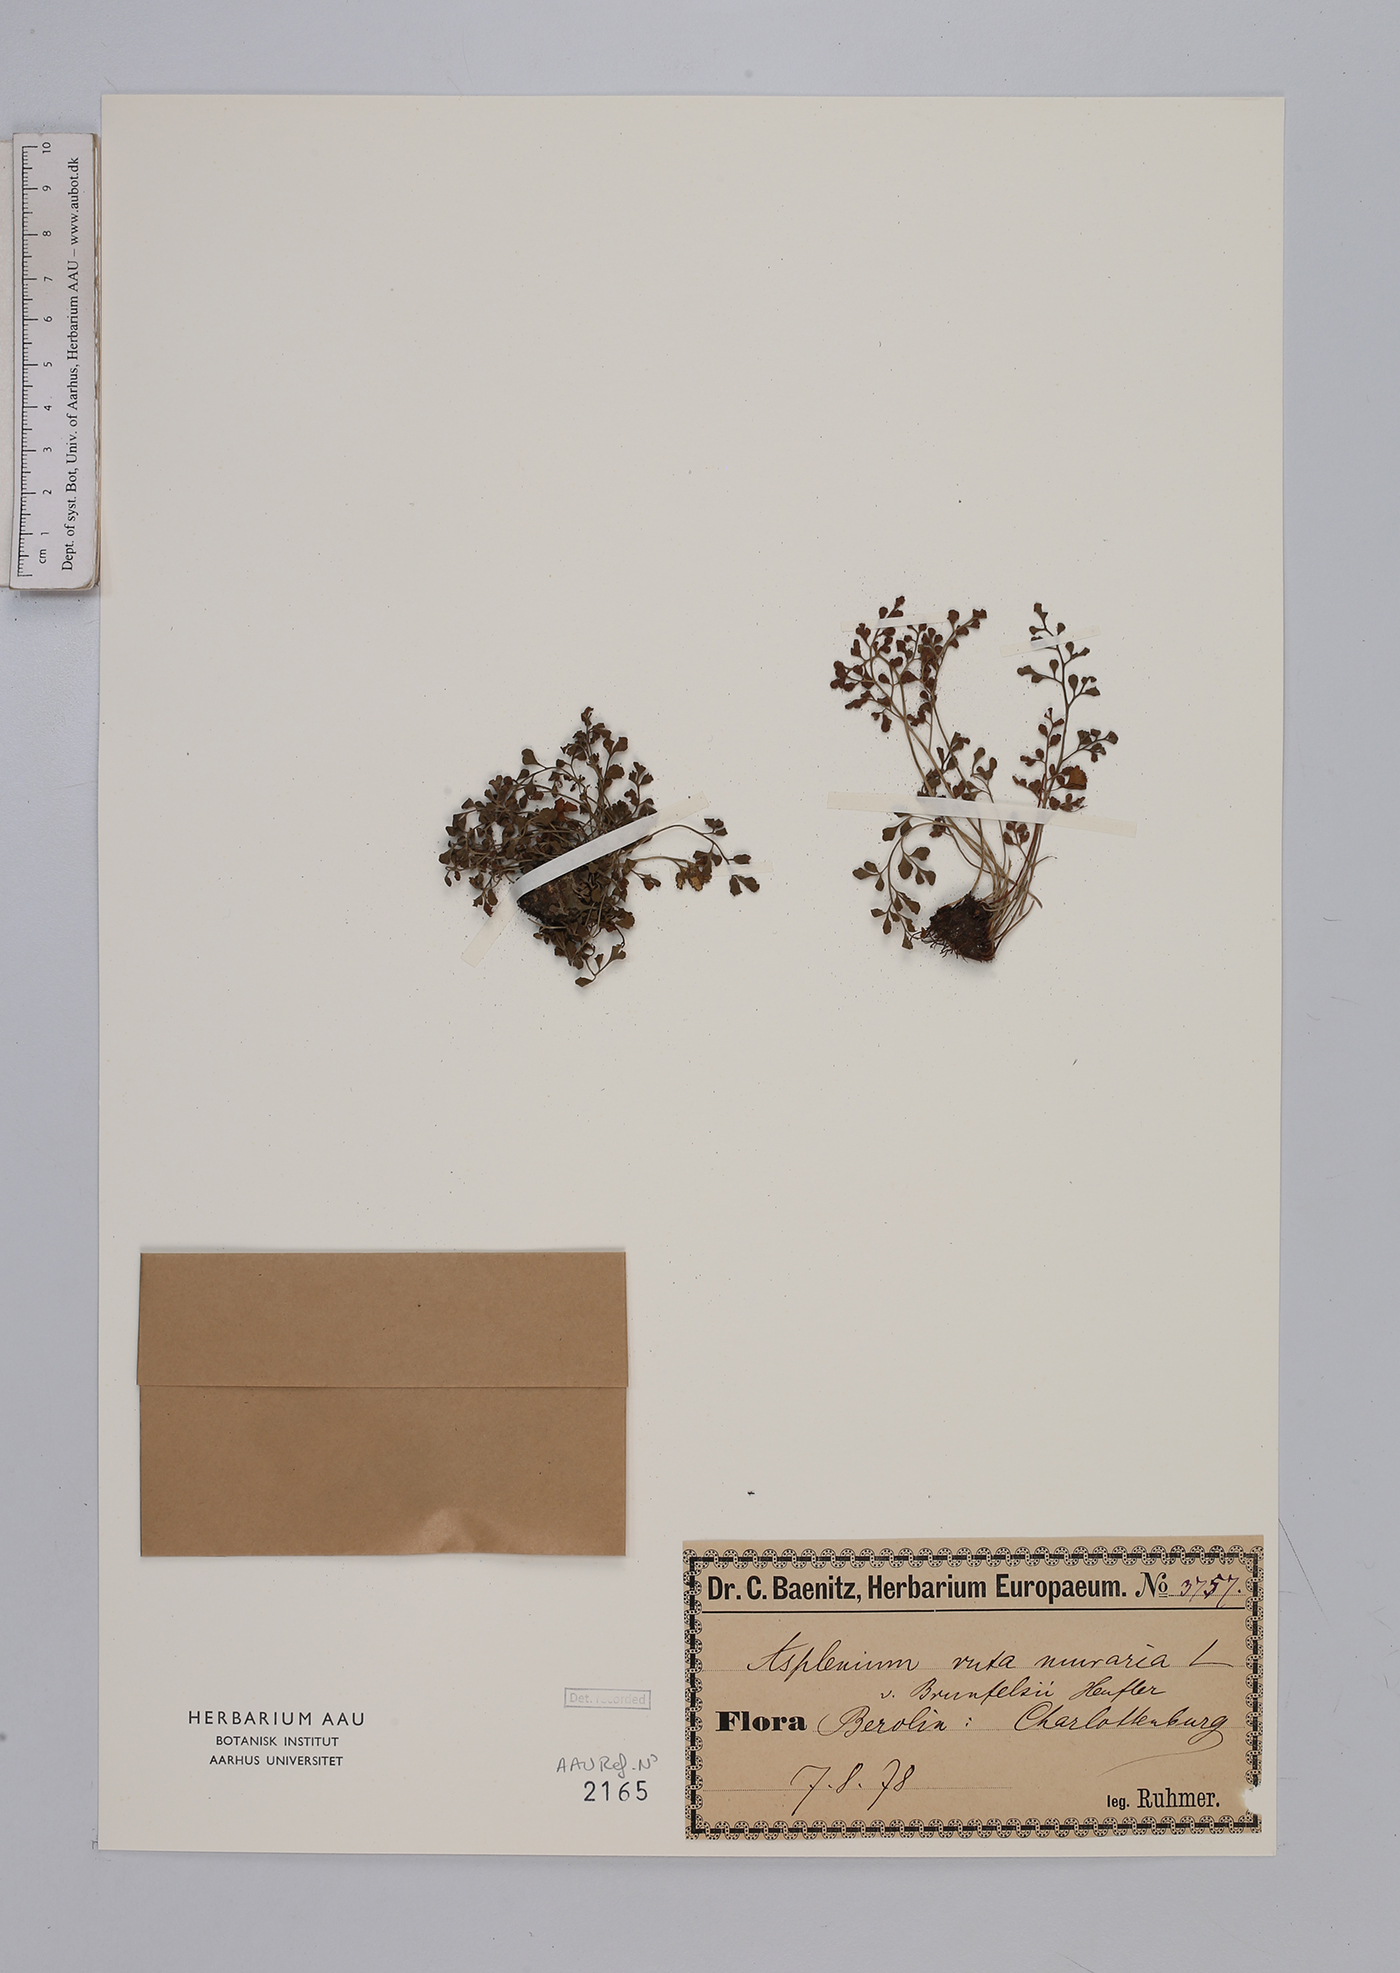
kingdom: Plantae
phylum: Tracheophyta
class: Polypodiopsida
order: Polypodiales
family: Aspleniaceae
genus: Asplenium
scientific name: Asplenium ruta-muraria
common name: Wall-rue
